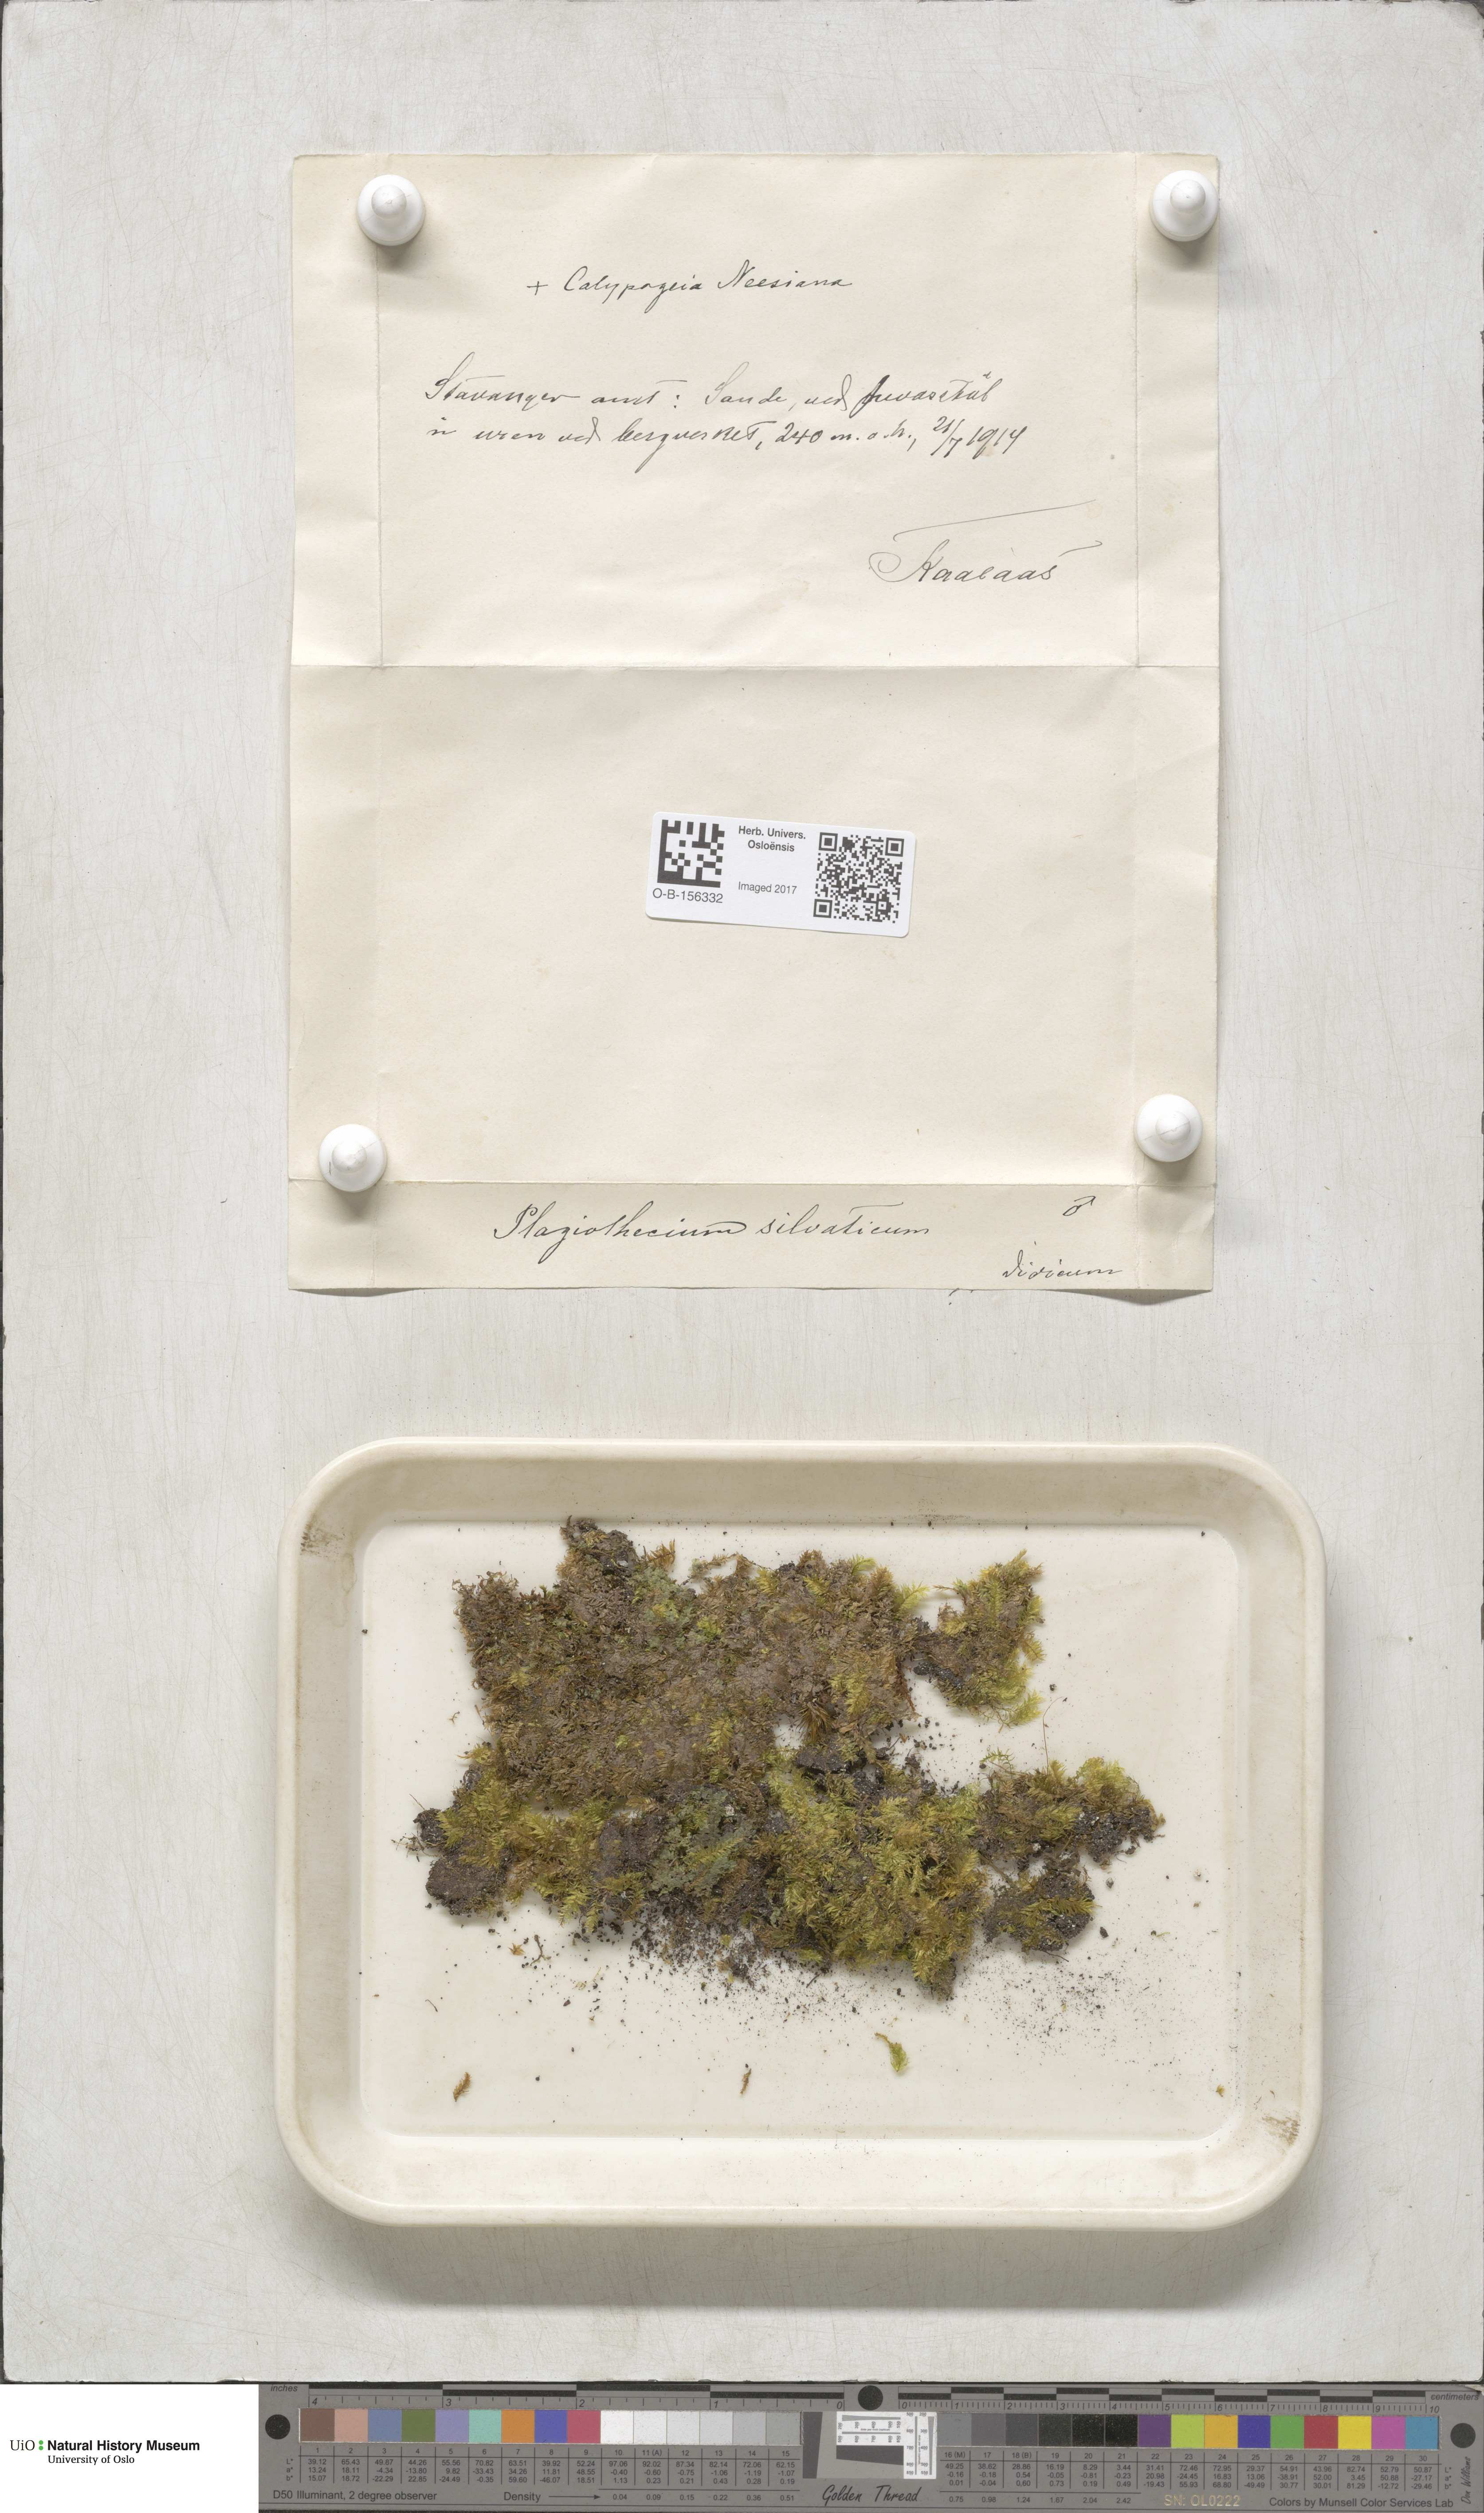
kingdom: Plantae
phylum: Bryophyta
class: Bryopsida
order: Hypnales
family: Plagiotheciaceae
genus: Plagiothecium
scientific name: Plagiothecium nemorale
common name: Woodsy silk-moss
